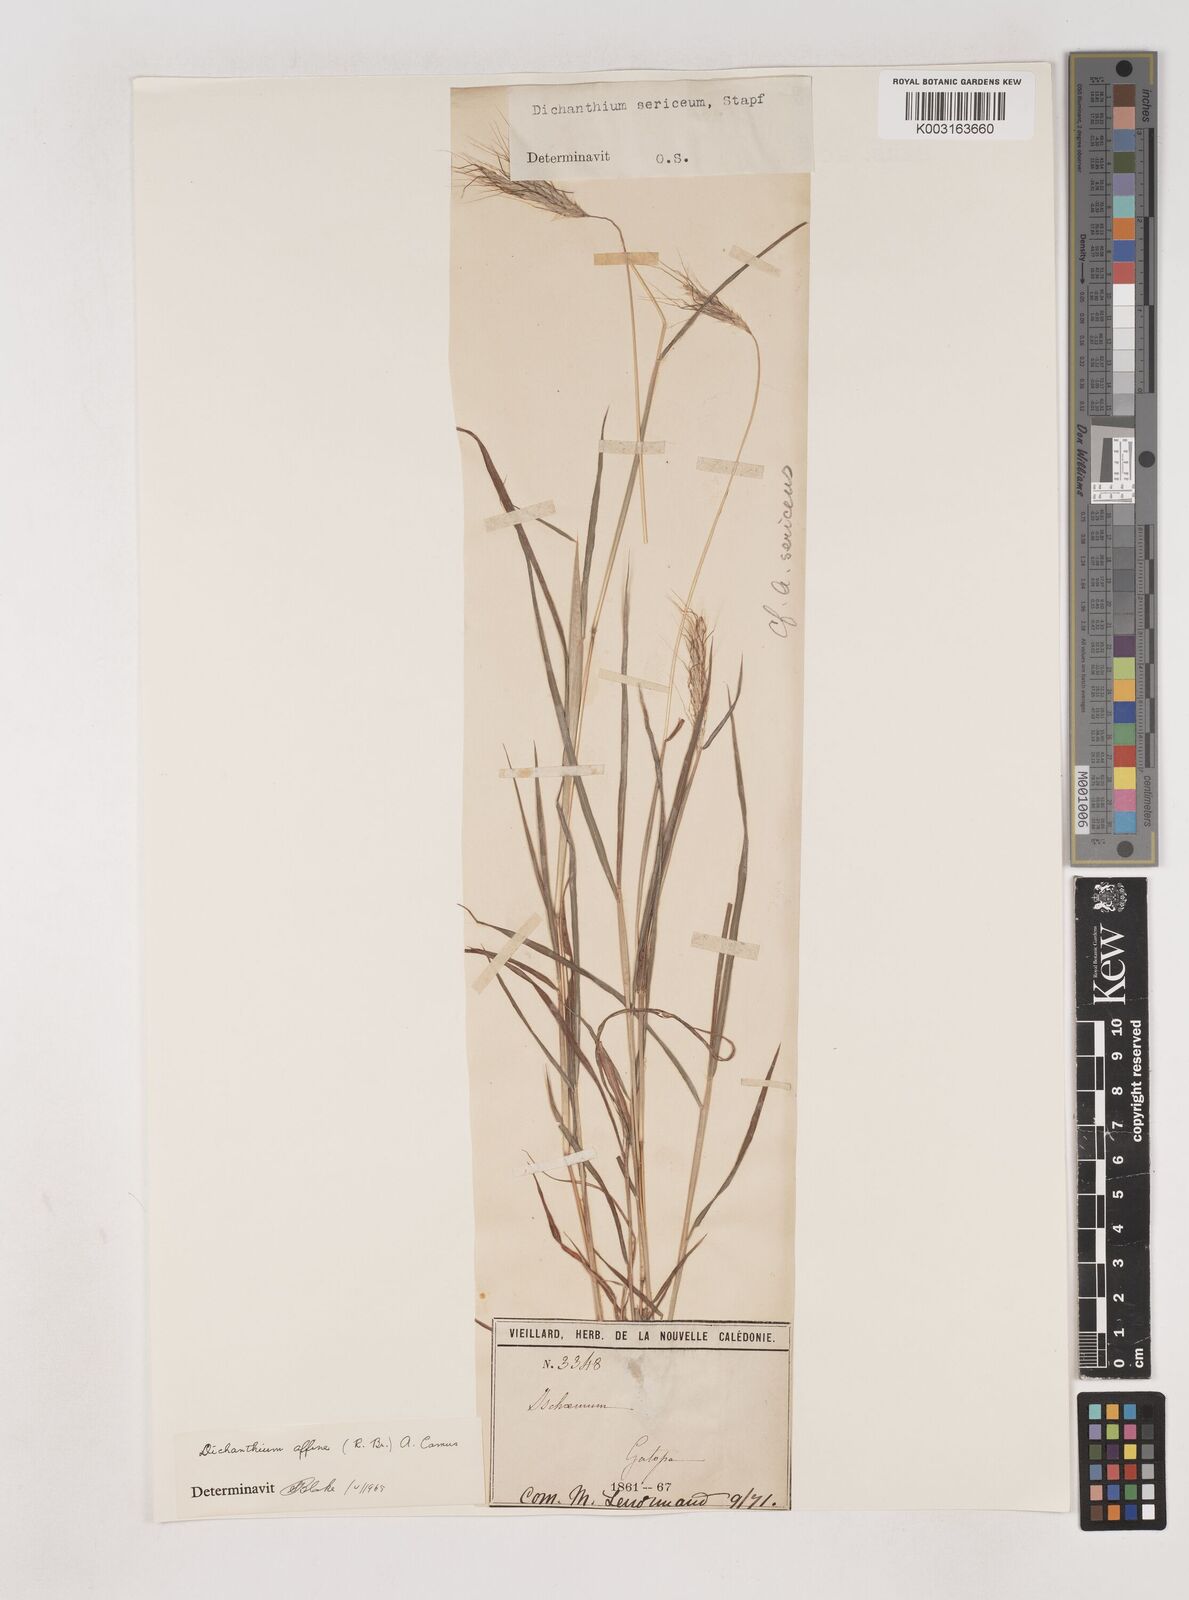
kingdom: Plantae
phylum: Tracheophyta
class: Liliopsida
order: Poales
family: Poaceae
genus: Dichanthium
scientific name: Dichanthium sericeum
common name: Silky bluestem
